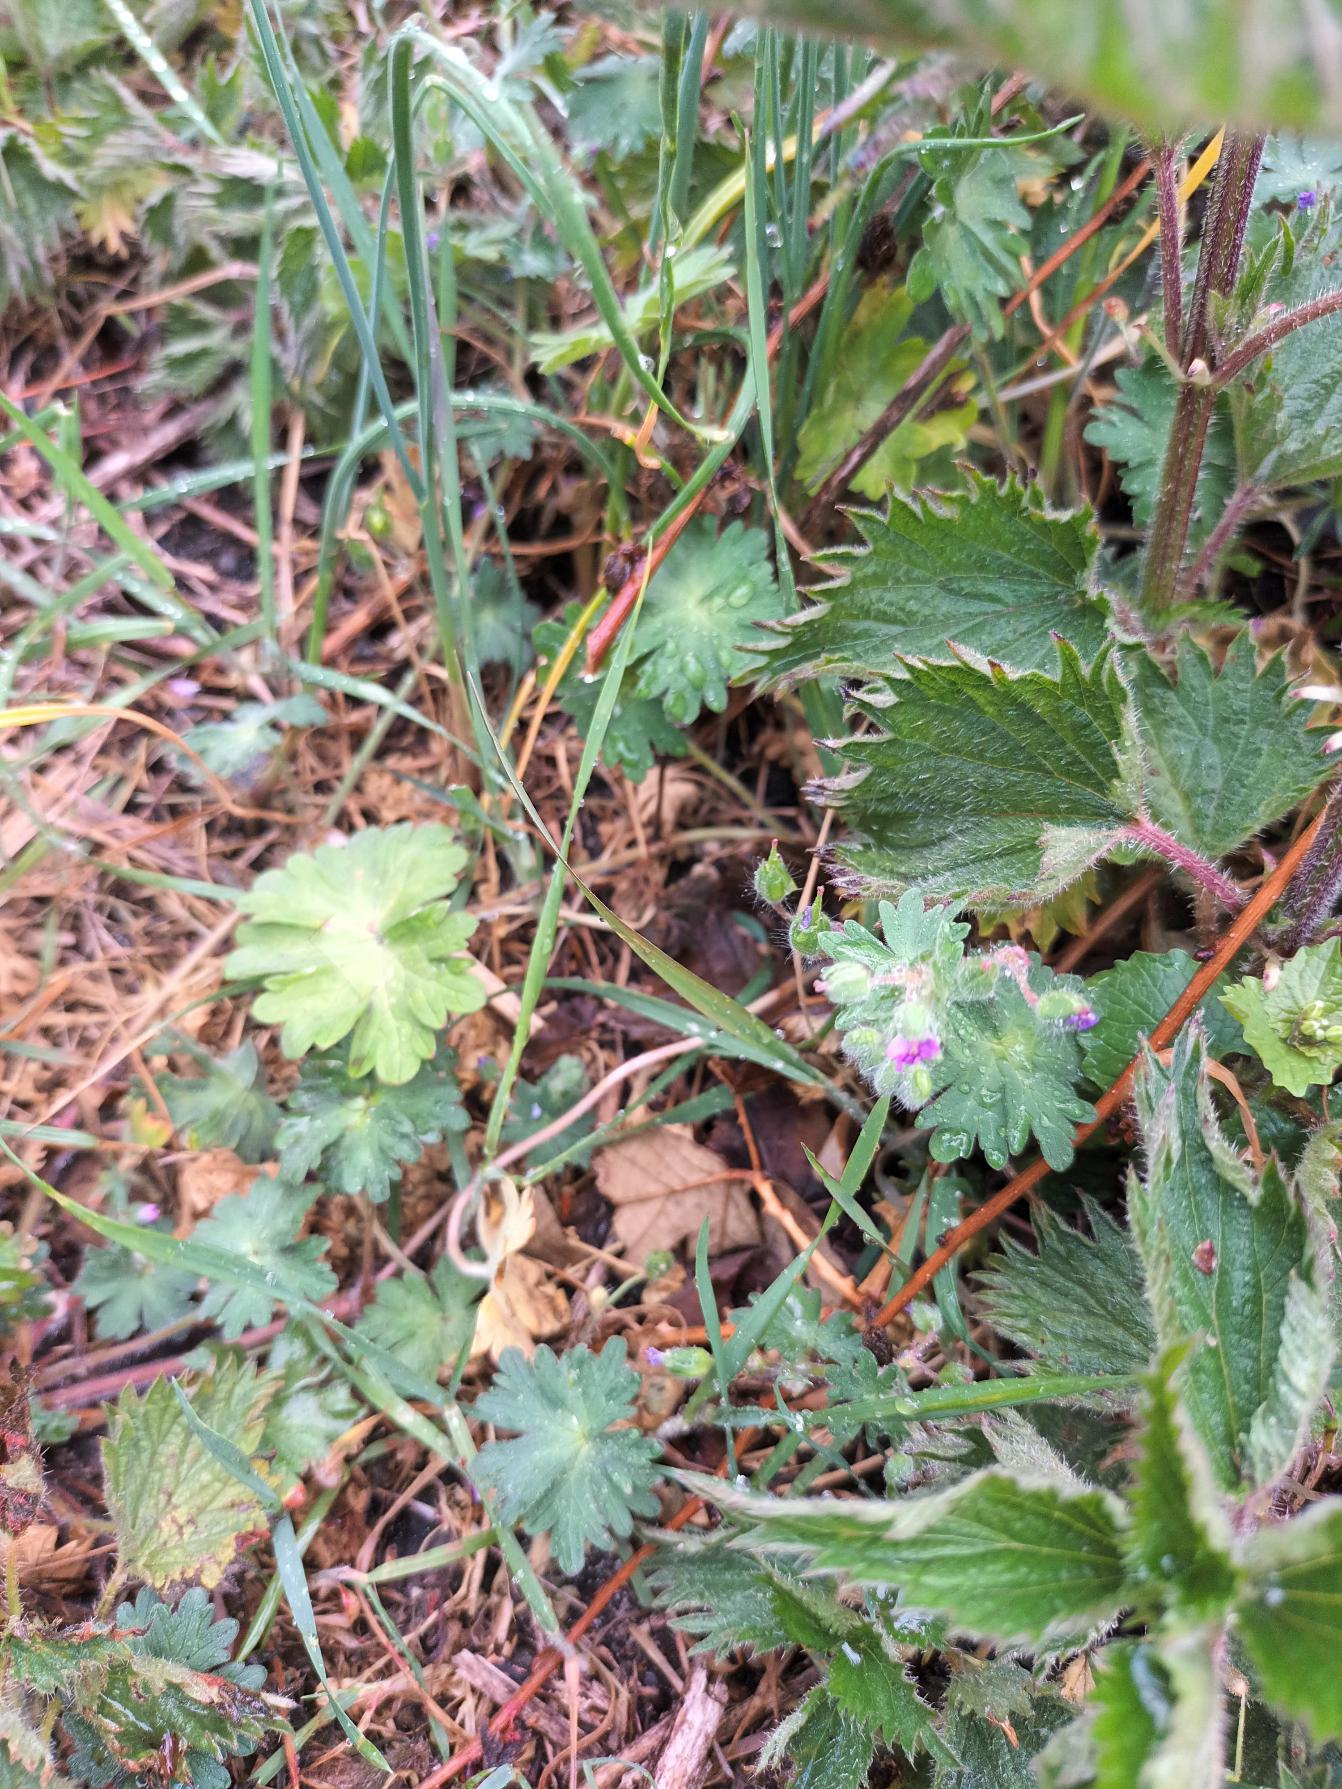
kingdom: Plantae
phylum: Tracheophyta
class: Magnoliopsida
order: Geraniales
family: Geraniaceae
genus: Geranium
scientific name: Geranium molle
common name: Blød storkenæb
